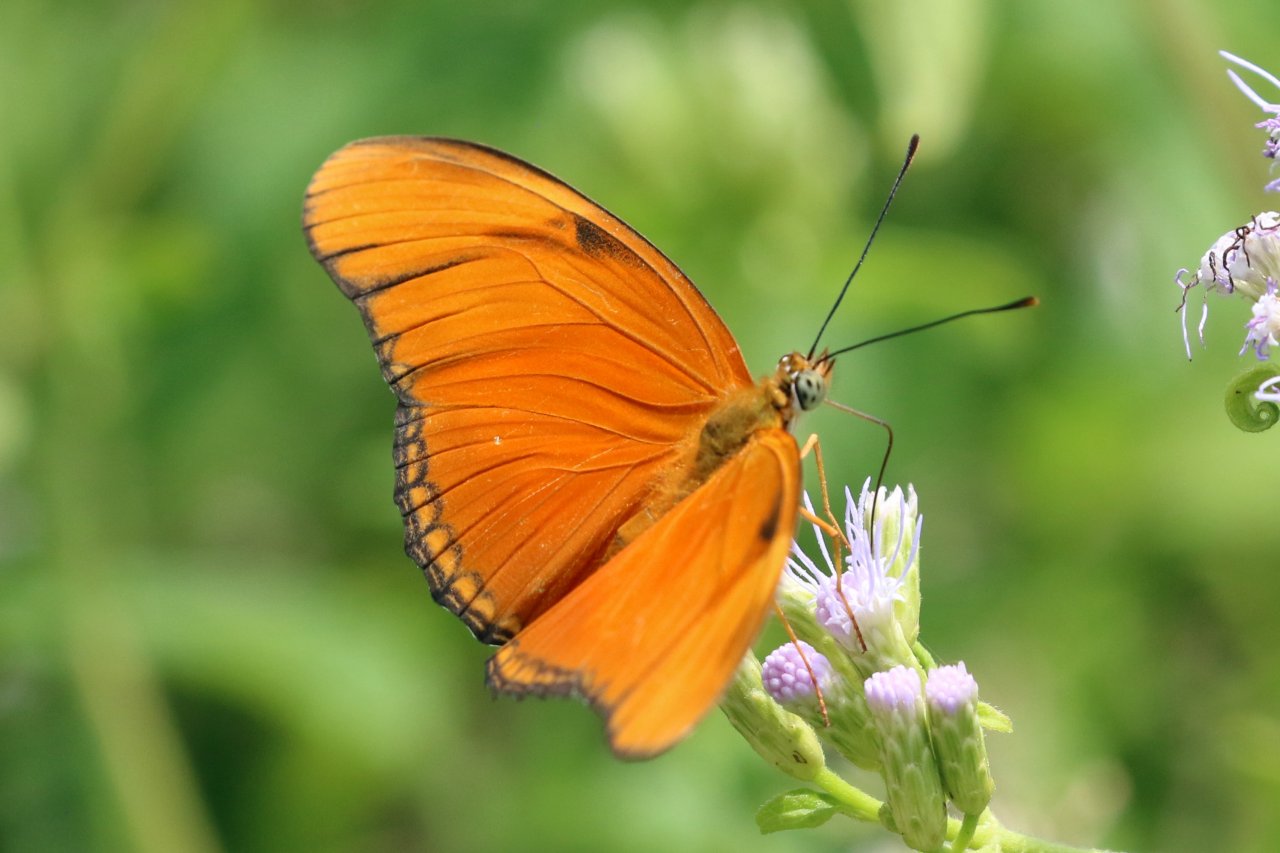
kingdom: Animalia
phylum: Arthropoda
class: Insecta
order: Lepidoptera
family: Nymphalidae
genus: Dryas
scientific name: Dryas iulia
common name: Julia
